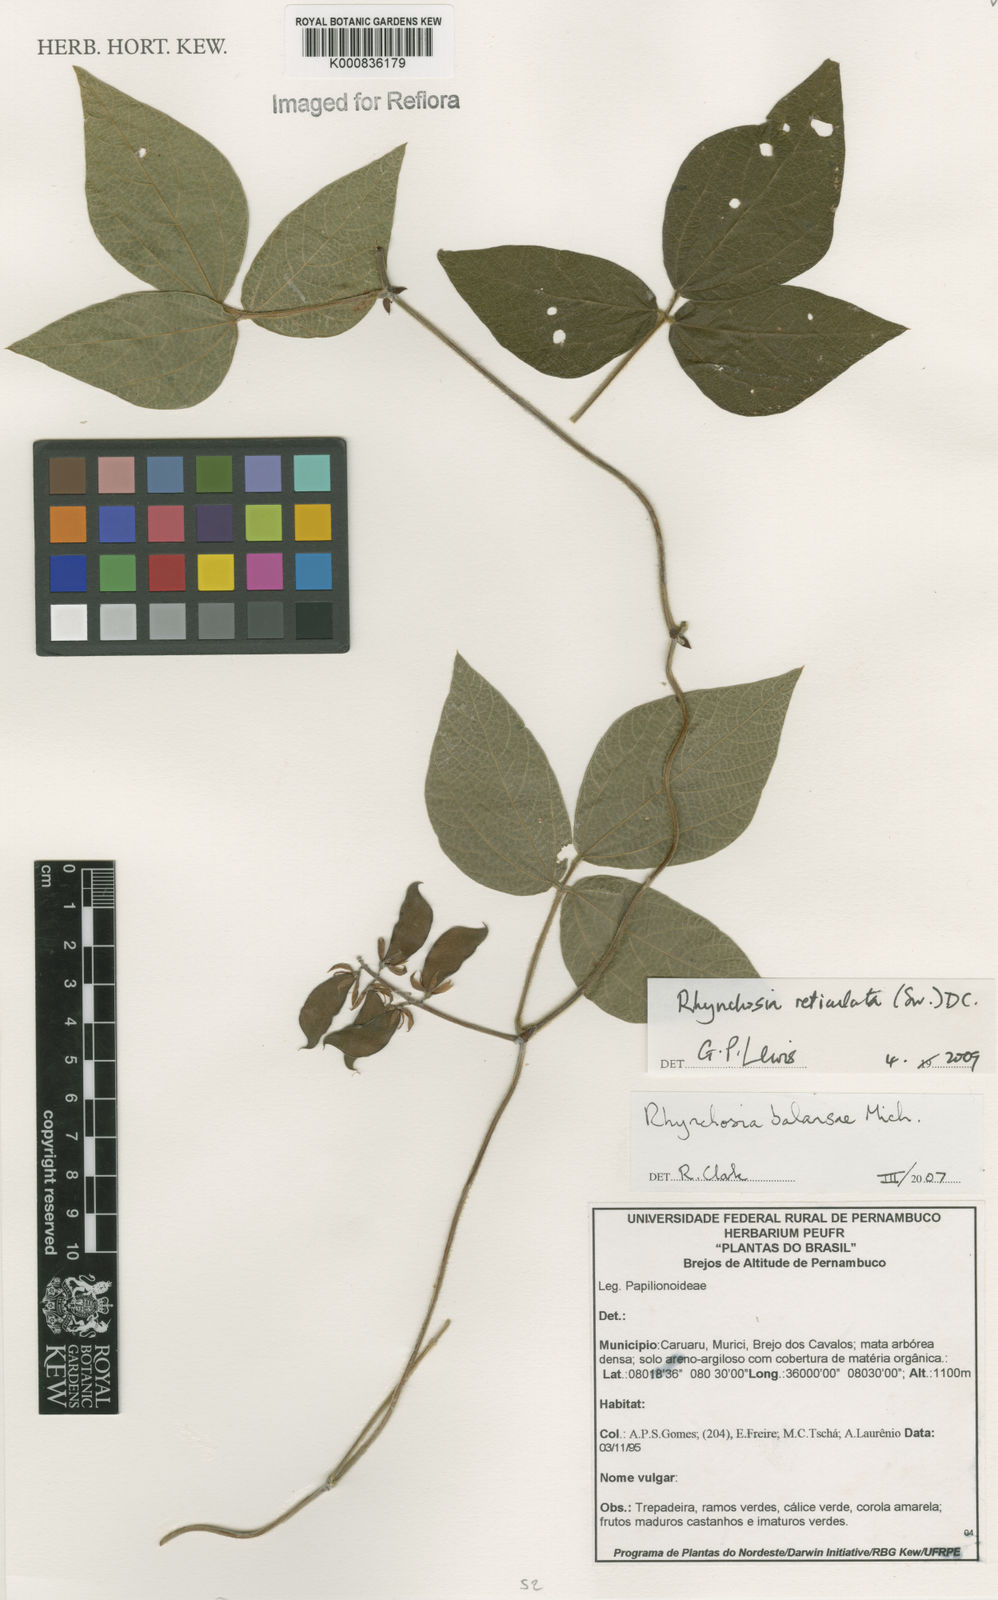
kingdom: Plantae
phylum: Tracheophyta
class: Magnoliopsida
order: Fabales
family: Fabaceae
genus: Rhynchosia
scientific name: Rhynchosia reticulata
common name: Pea withe
